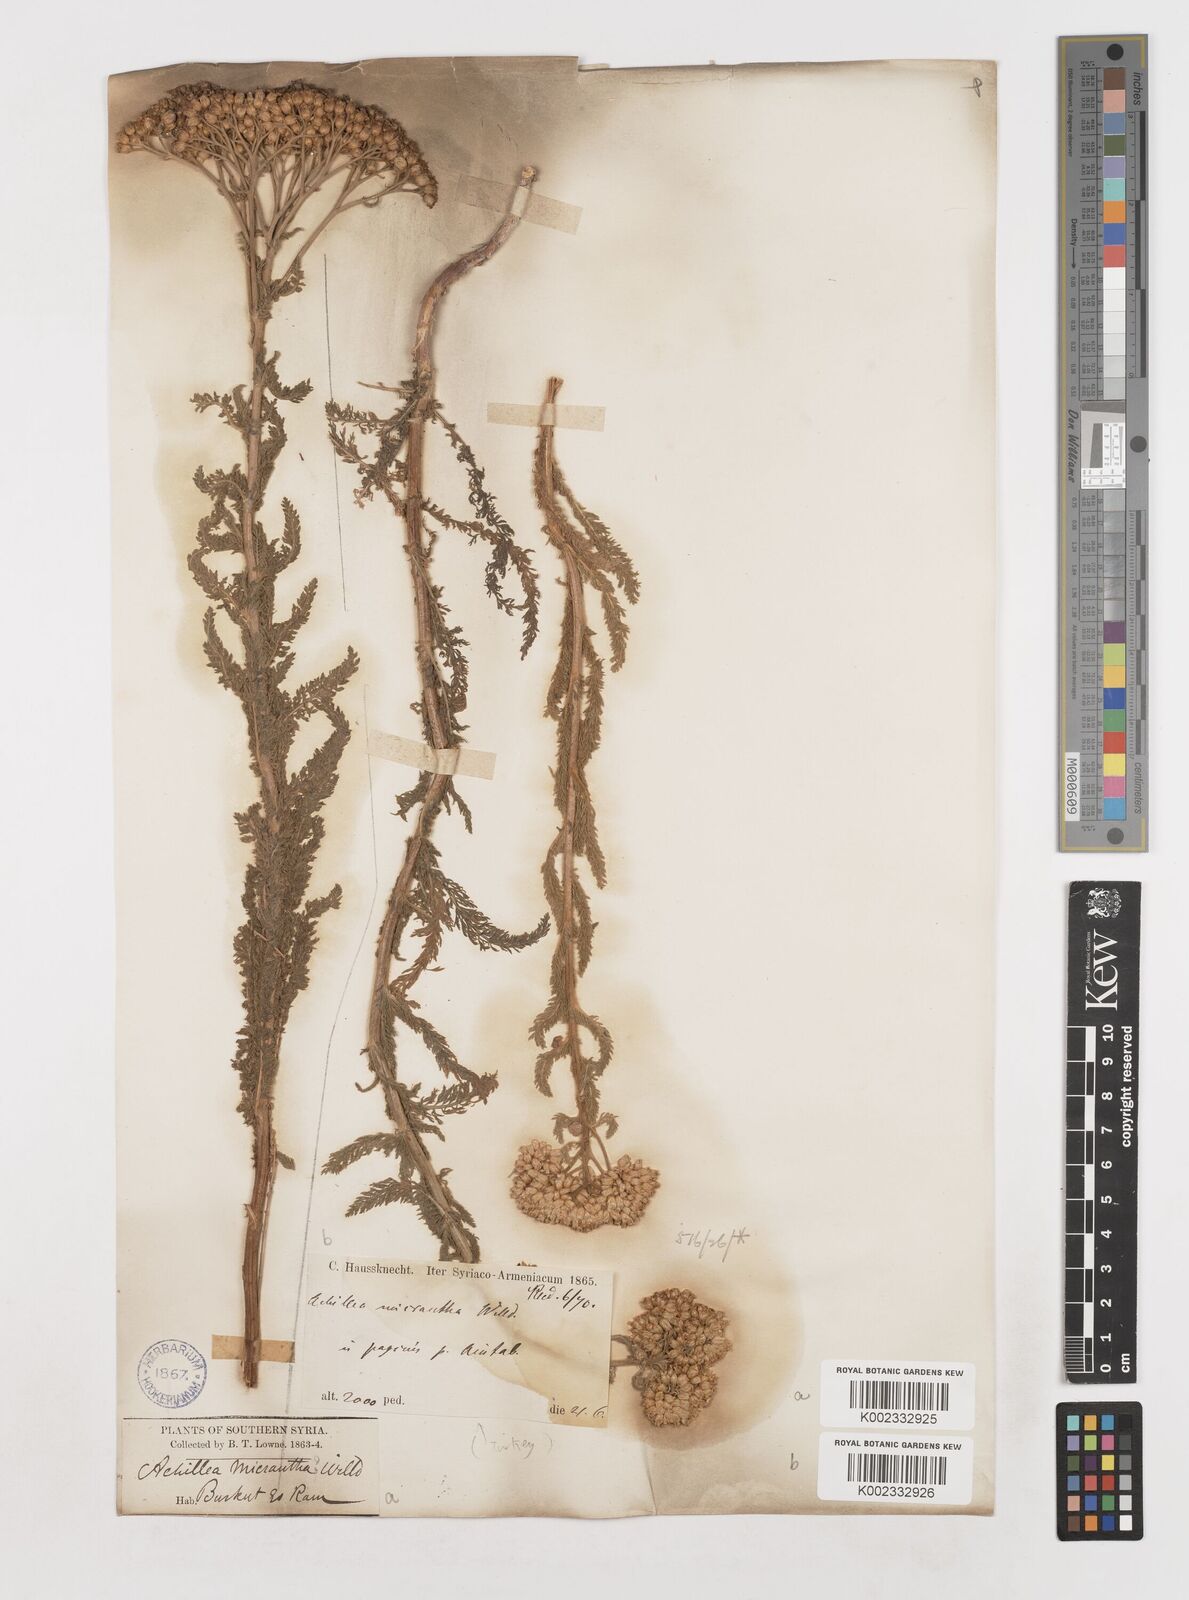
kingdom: Plantae
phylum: Tracheophyta
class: Magnoliopsida
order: Asterales
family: Asteraceae
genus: Achillea
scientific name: Achillea arabica
